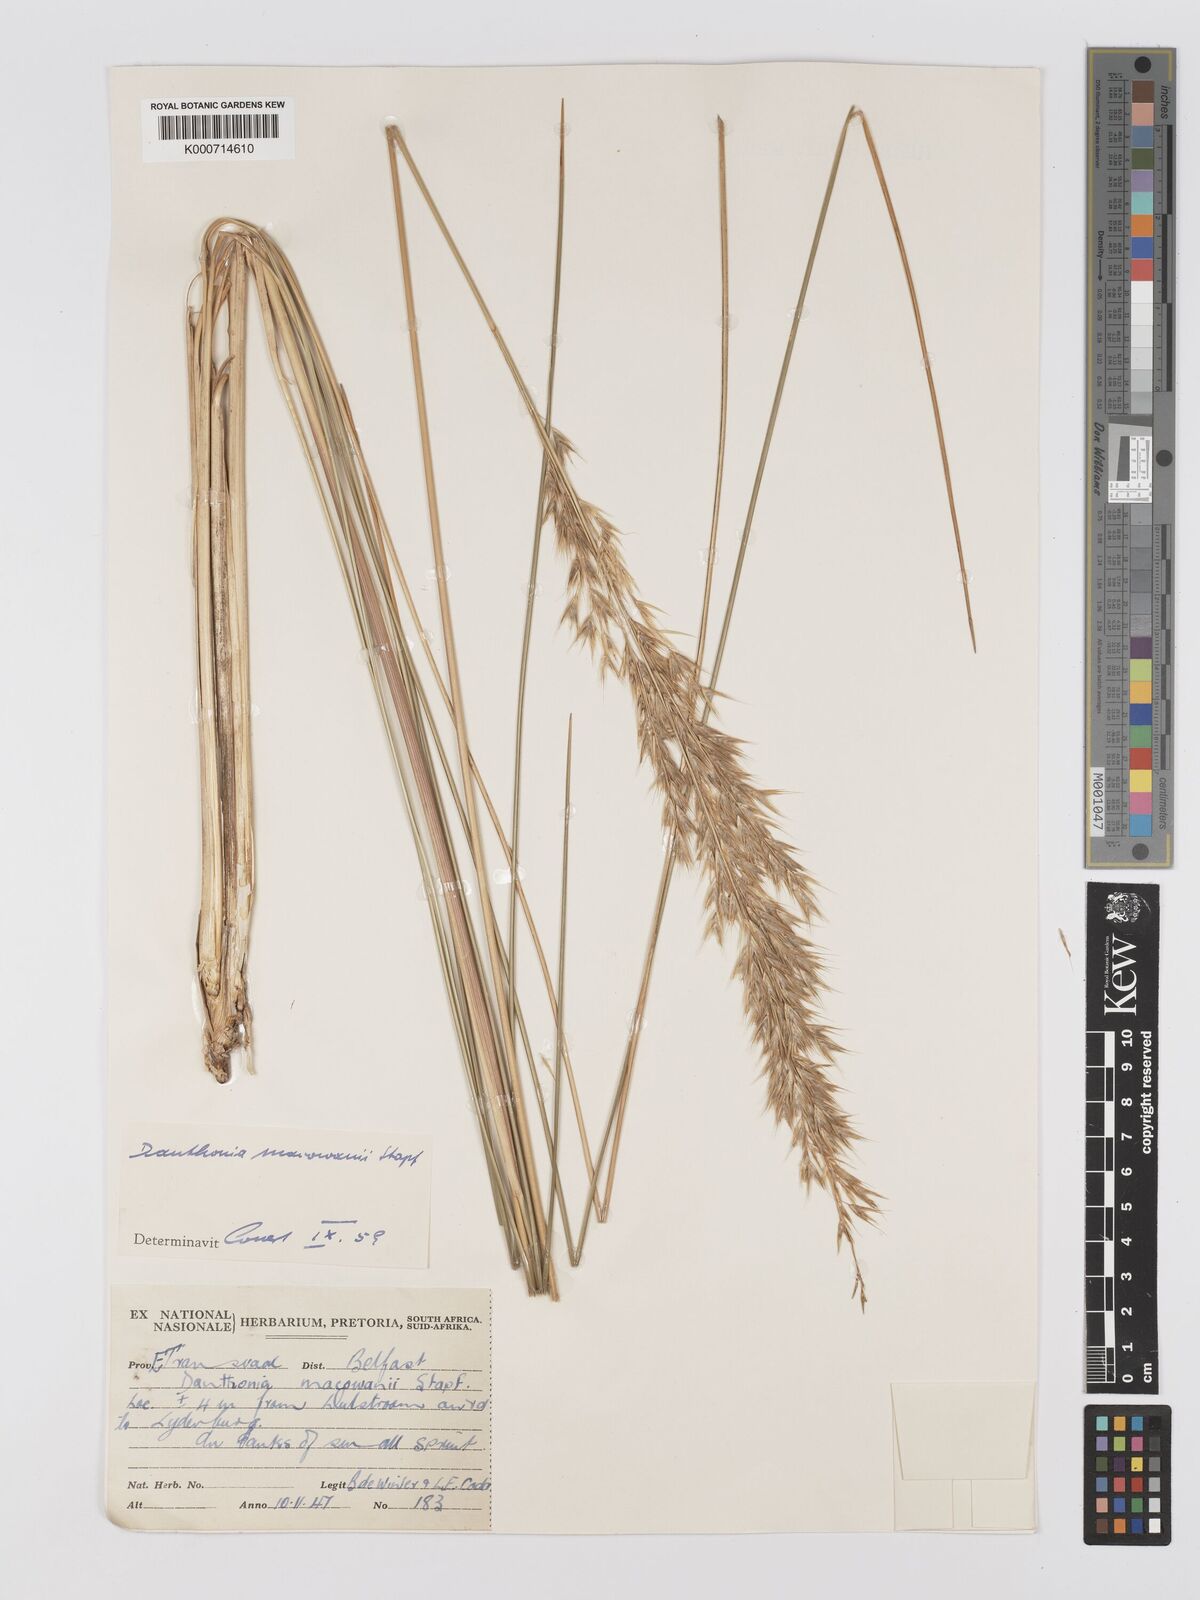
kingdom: Plantae
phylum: Tracheophyta
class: Liliopsida
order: Poales
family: Poaceae
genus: Rytidosperma
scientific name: Rytidosperma
